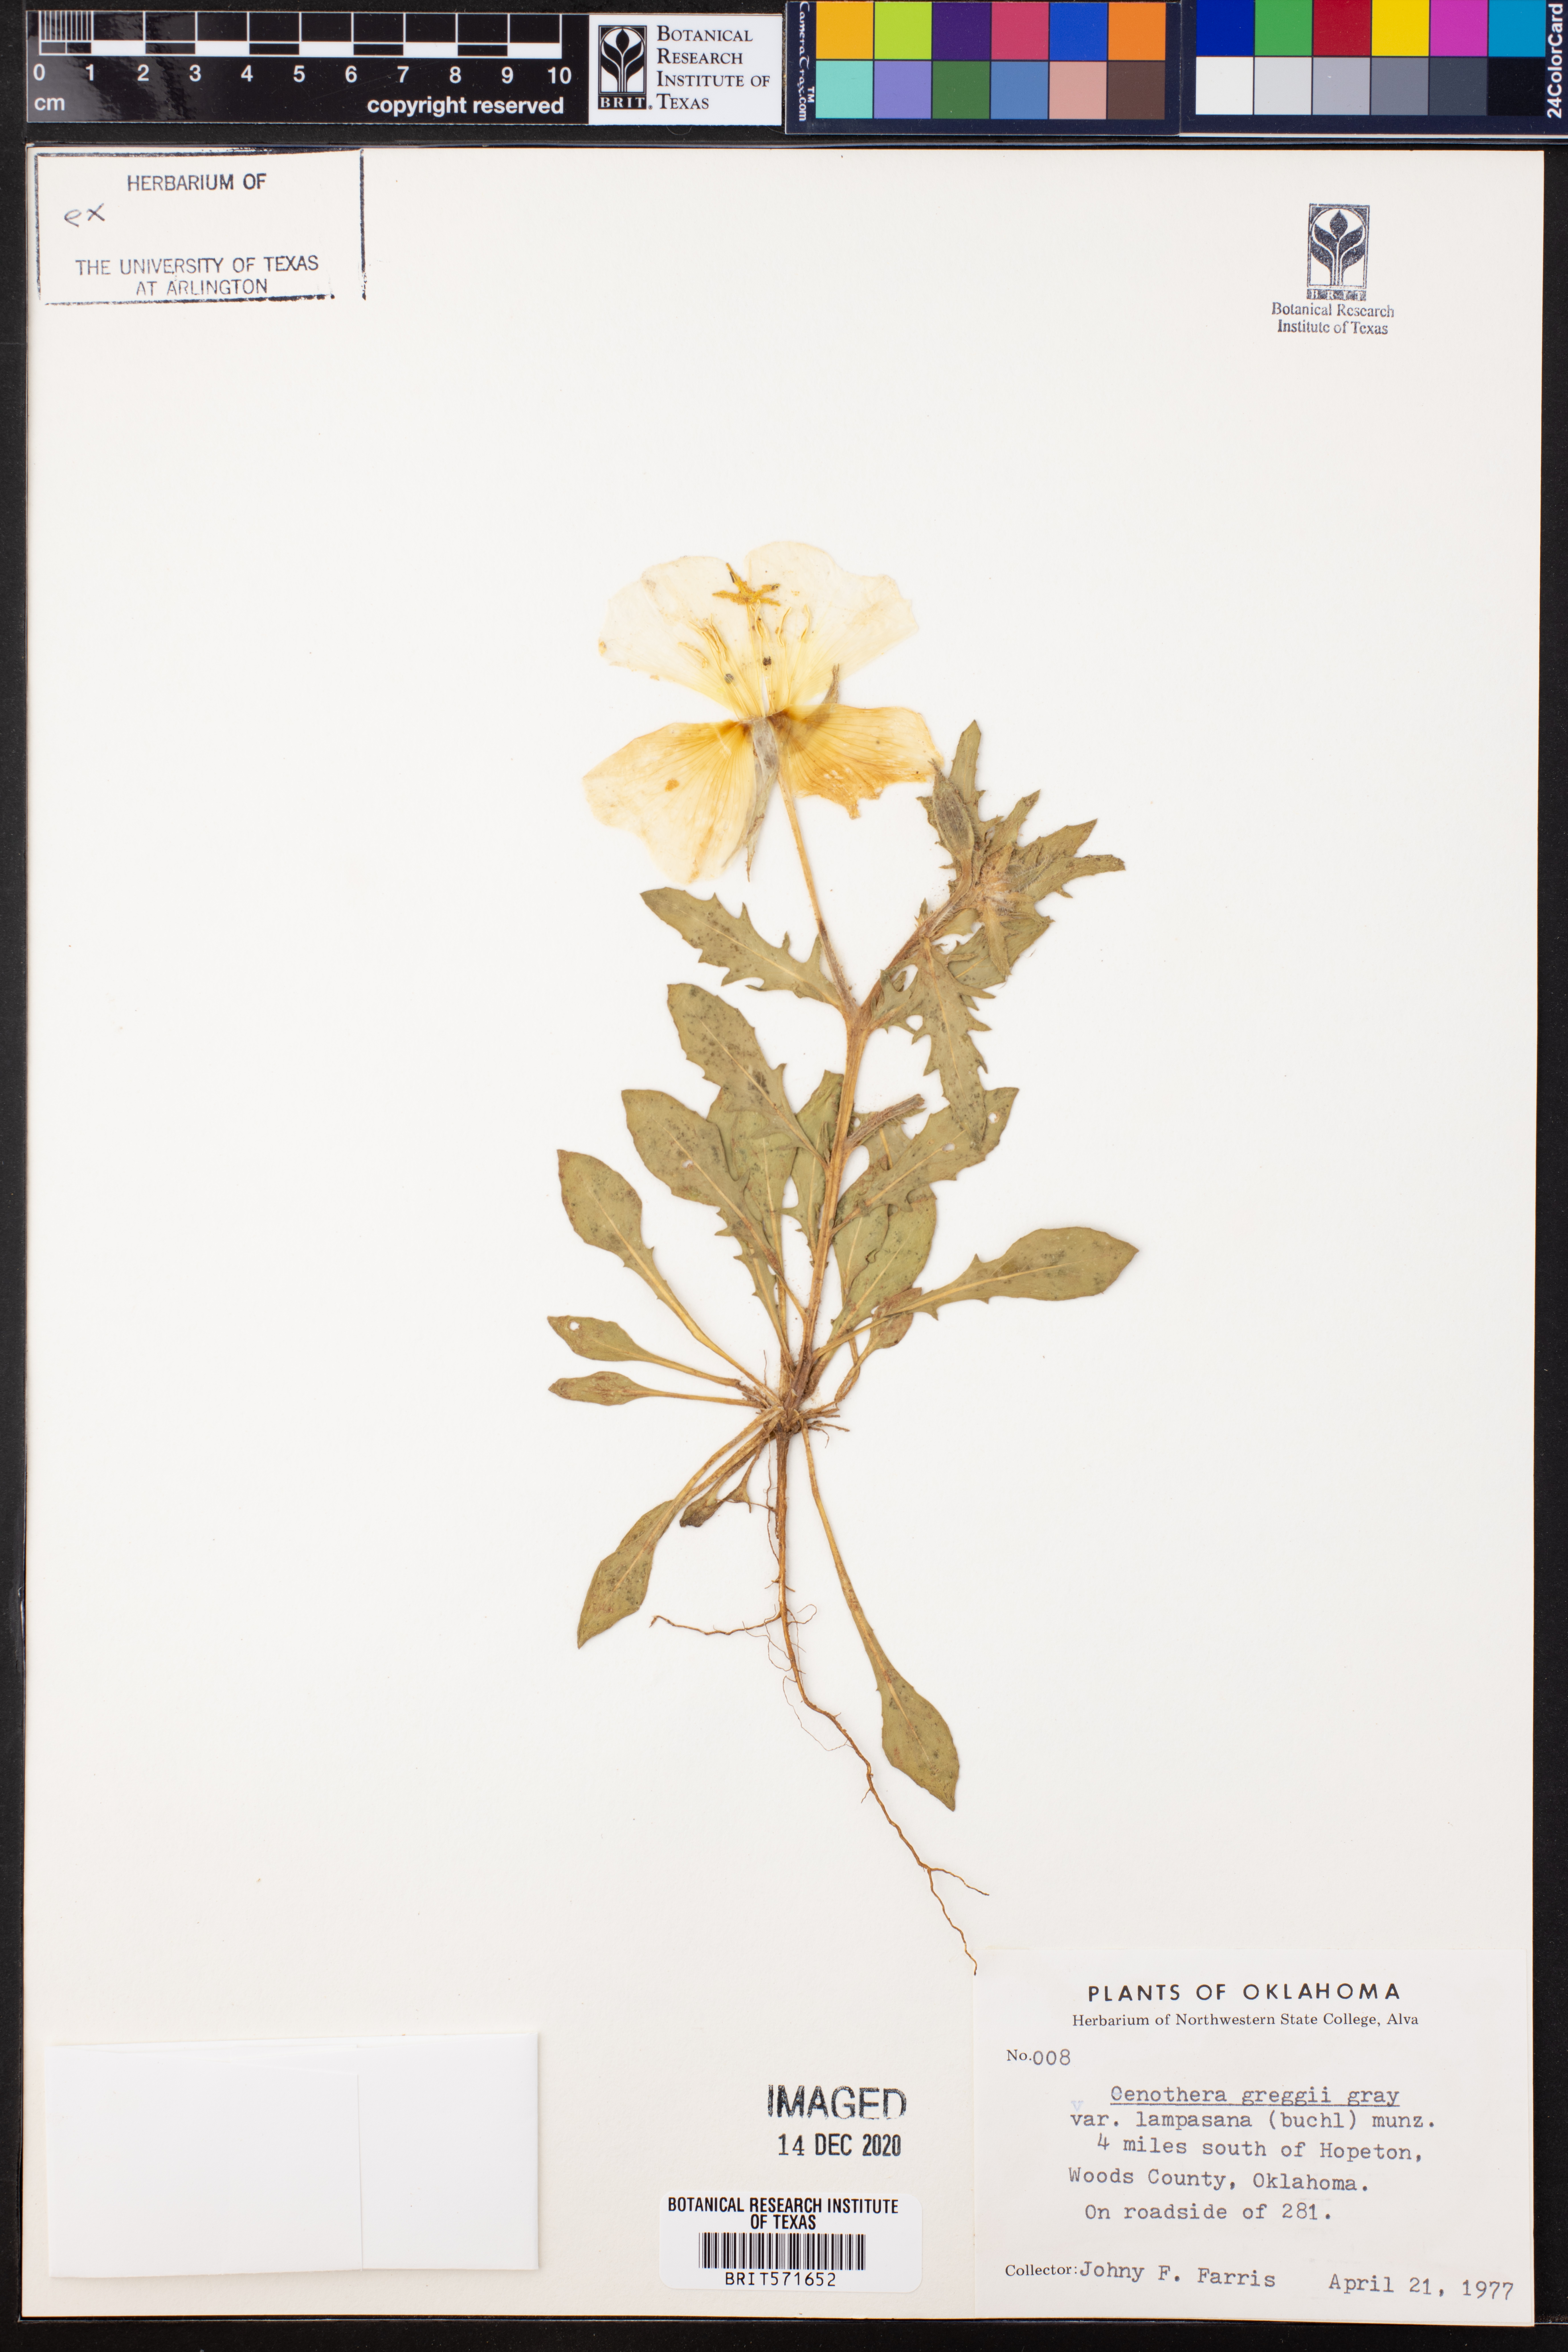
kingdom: Plantae
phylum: Tracheophyta
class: Magnoliopsida
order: Myrtales
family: Onagraceae
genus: Oenothera
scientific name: Oenothera hartwegii
